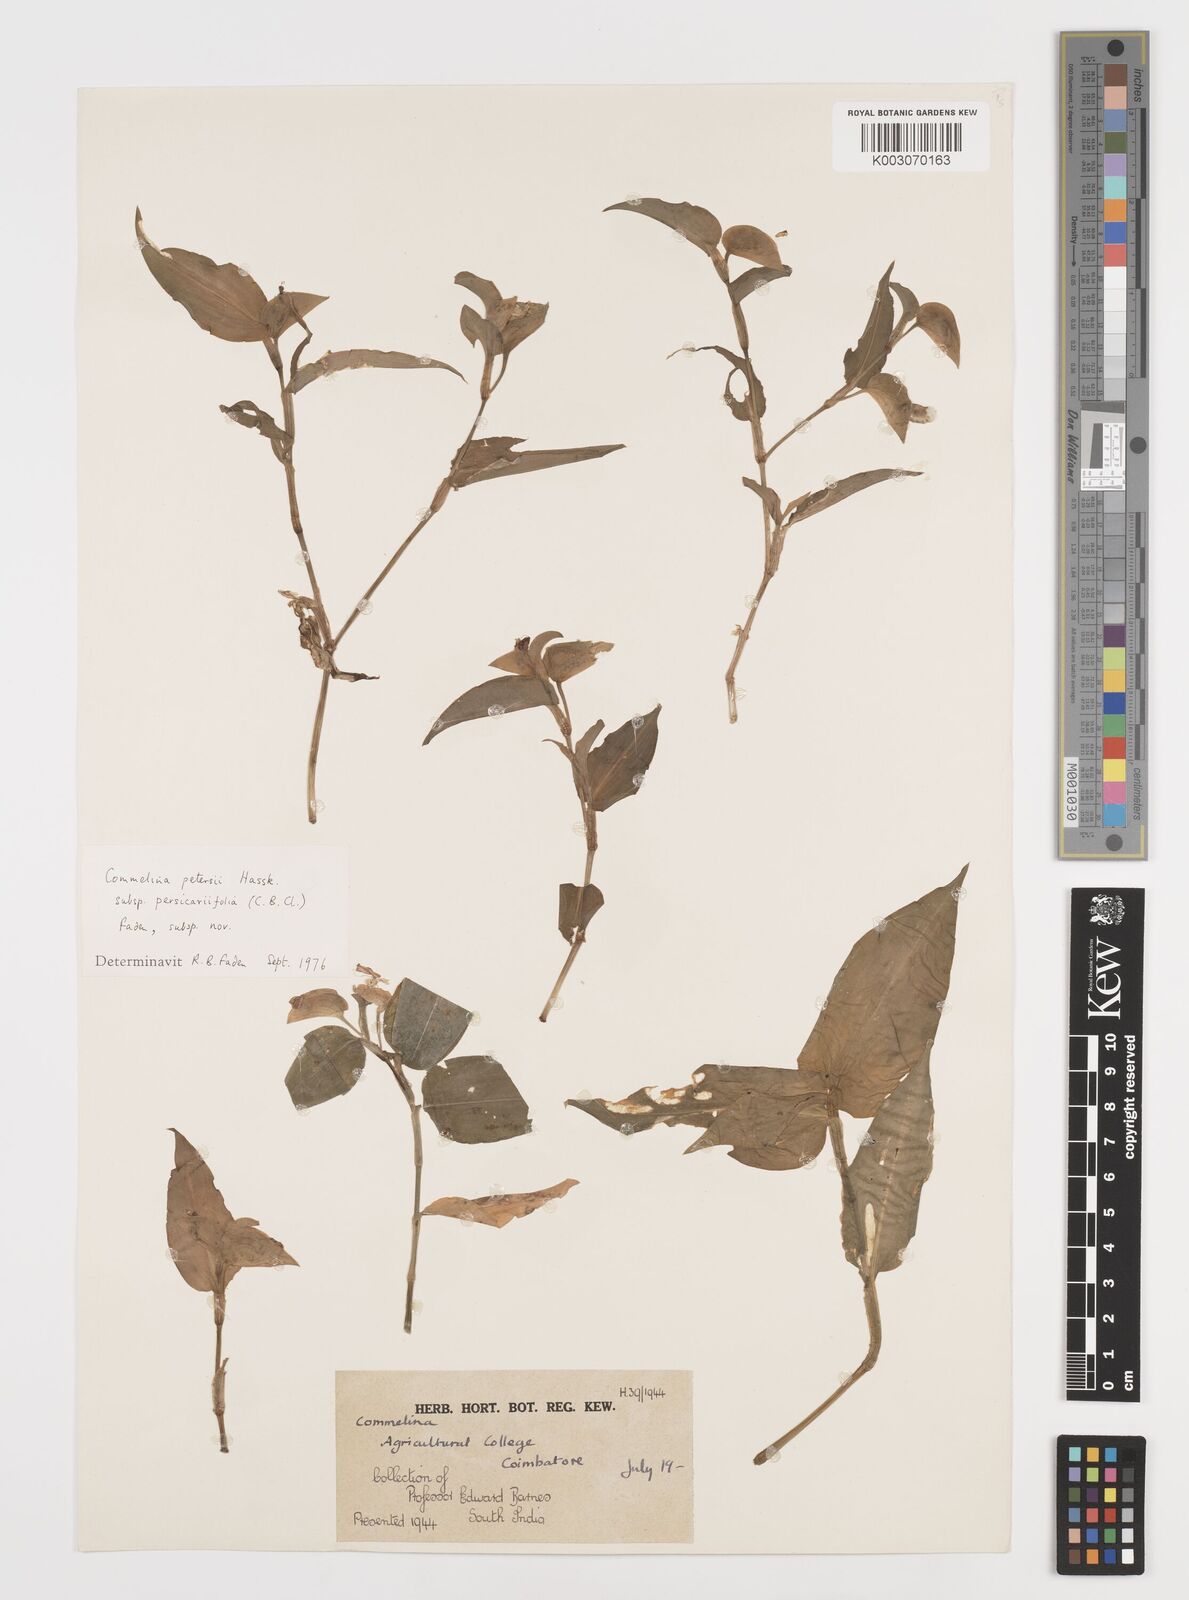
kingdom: Plantae
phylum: Tracheophyta
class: Liliopsida
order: Commelinales
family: Commelinaceae
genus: Commelina
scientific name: Commelina petersii
